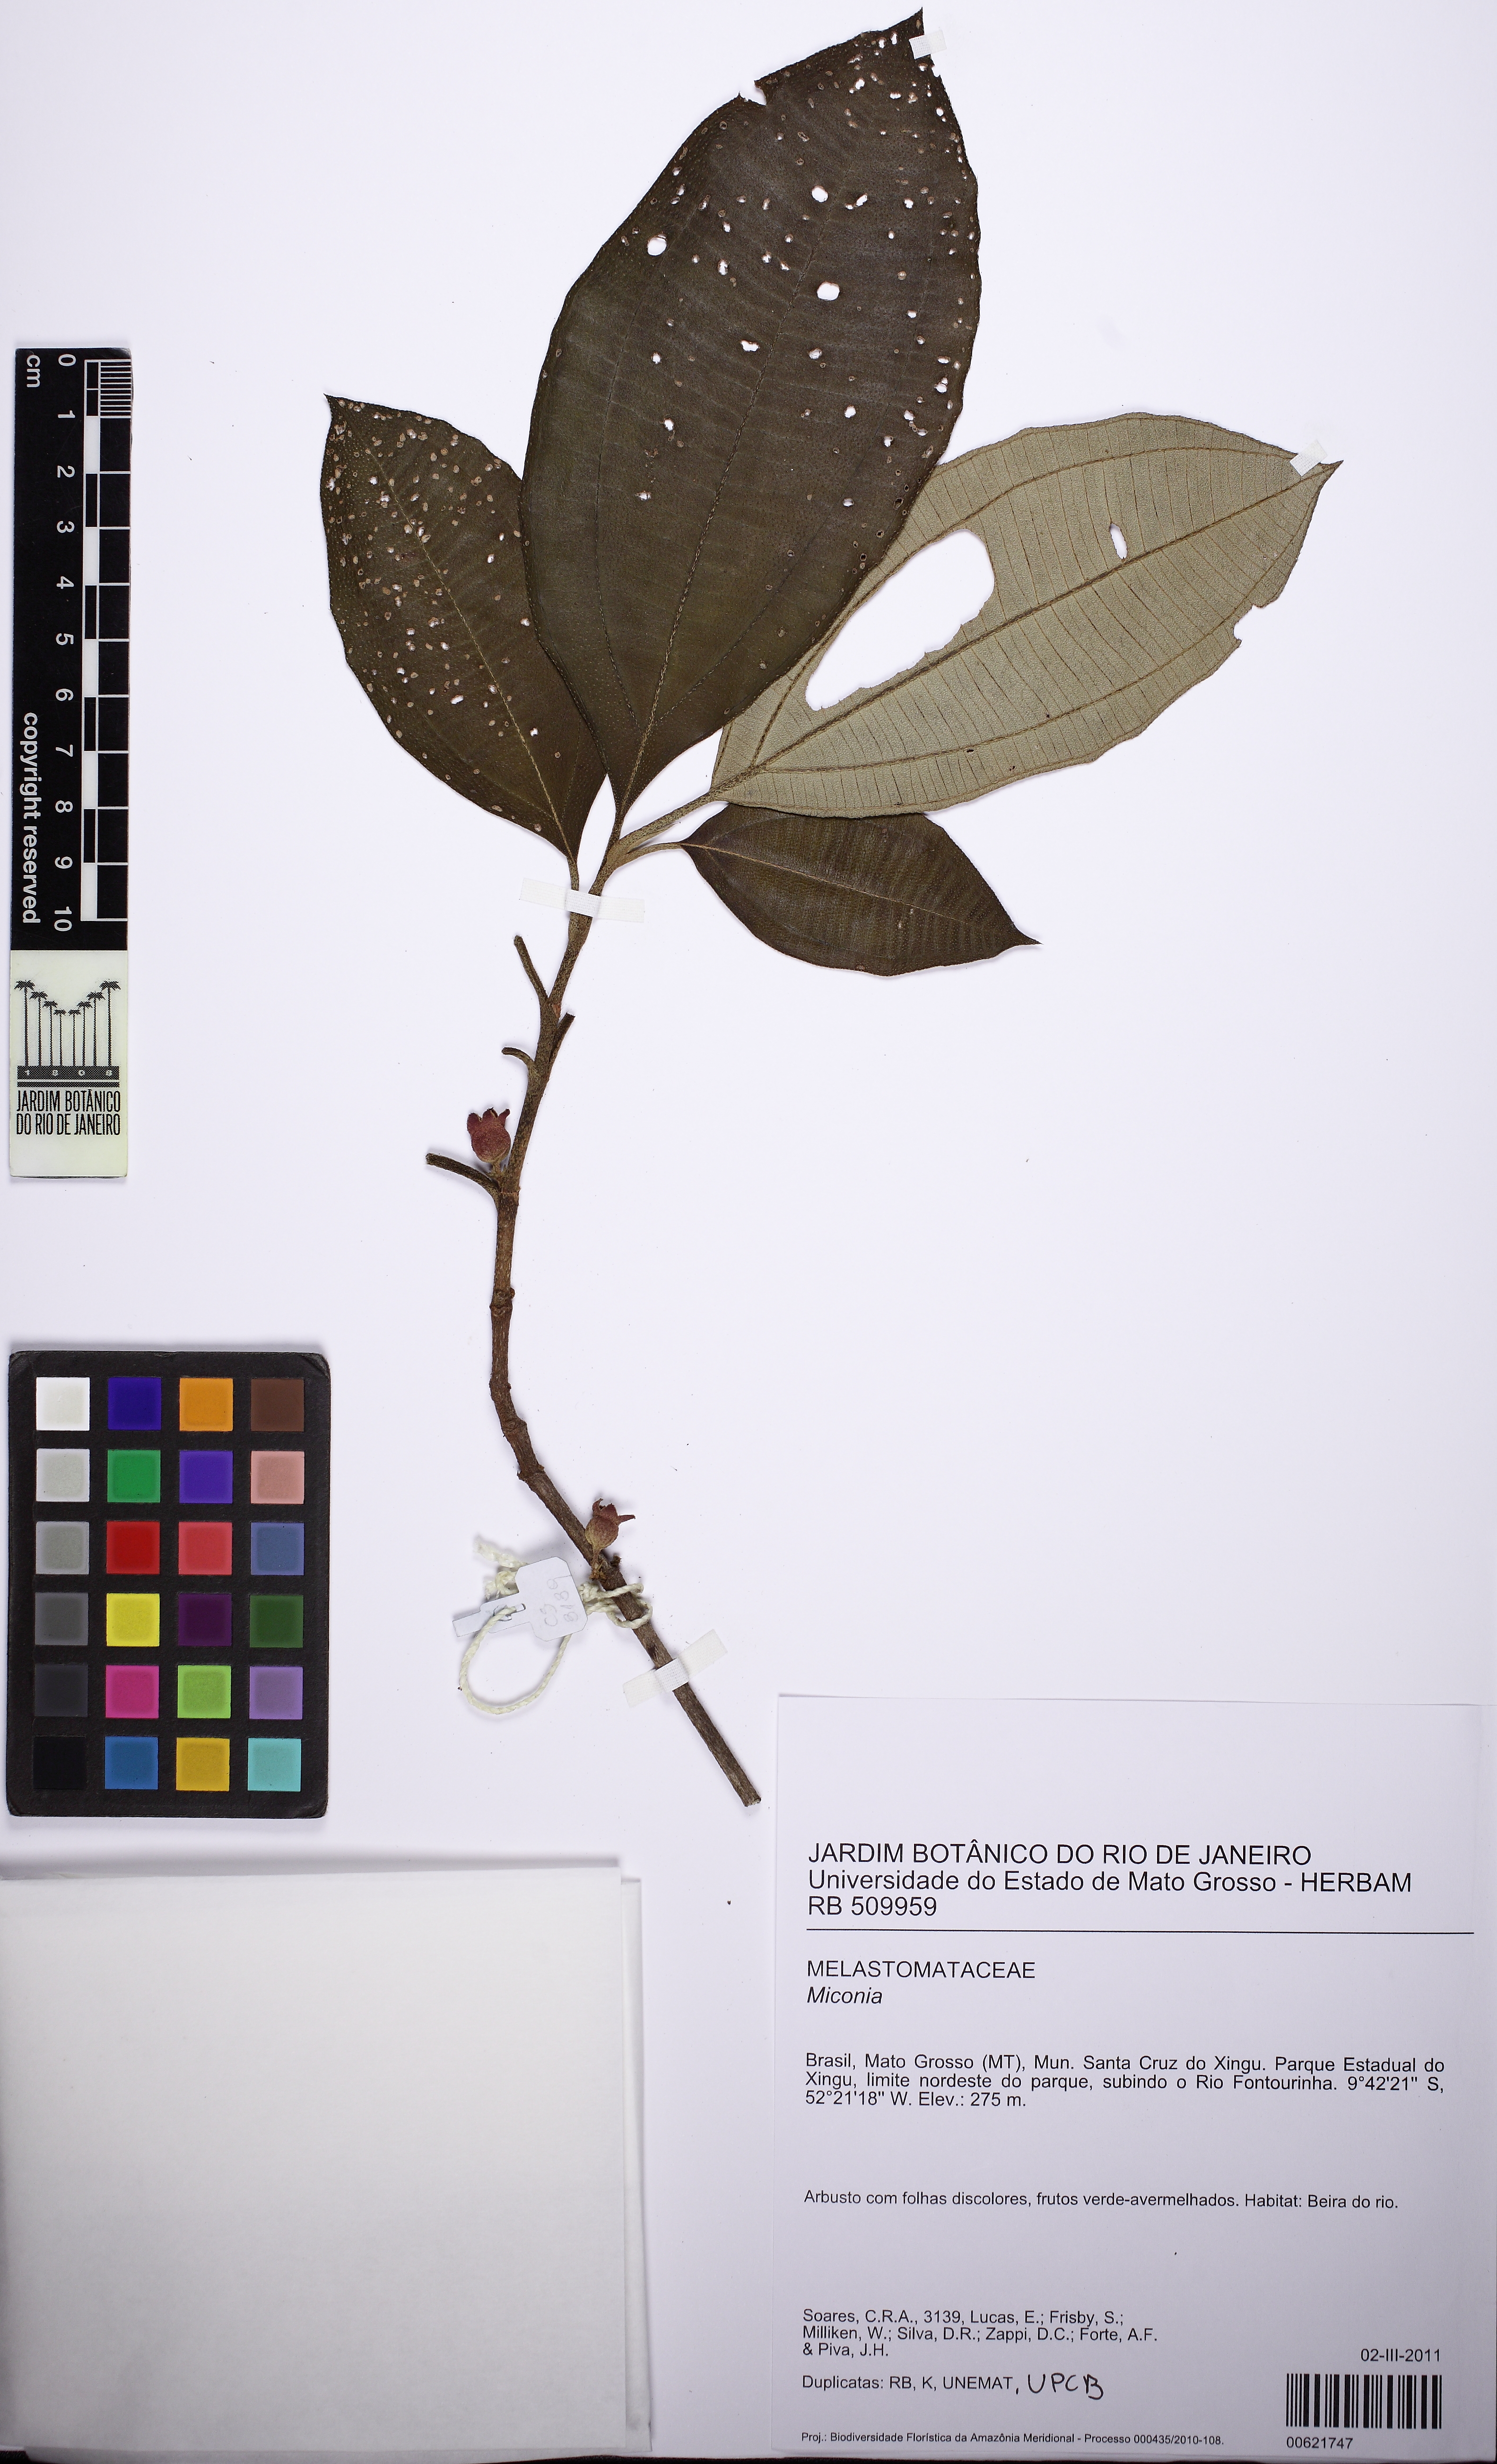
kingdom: Plantae
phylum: Tracheophyta
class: Magnoliopsida
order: Myrtales
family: Melastomataceae
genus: Miconia
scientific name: Miconia eugenioides
